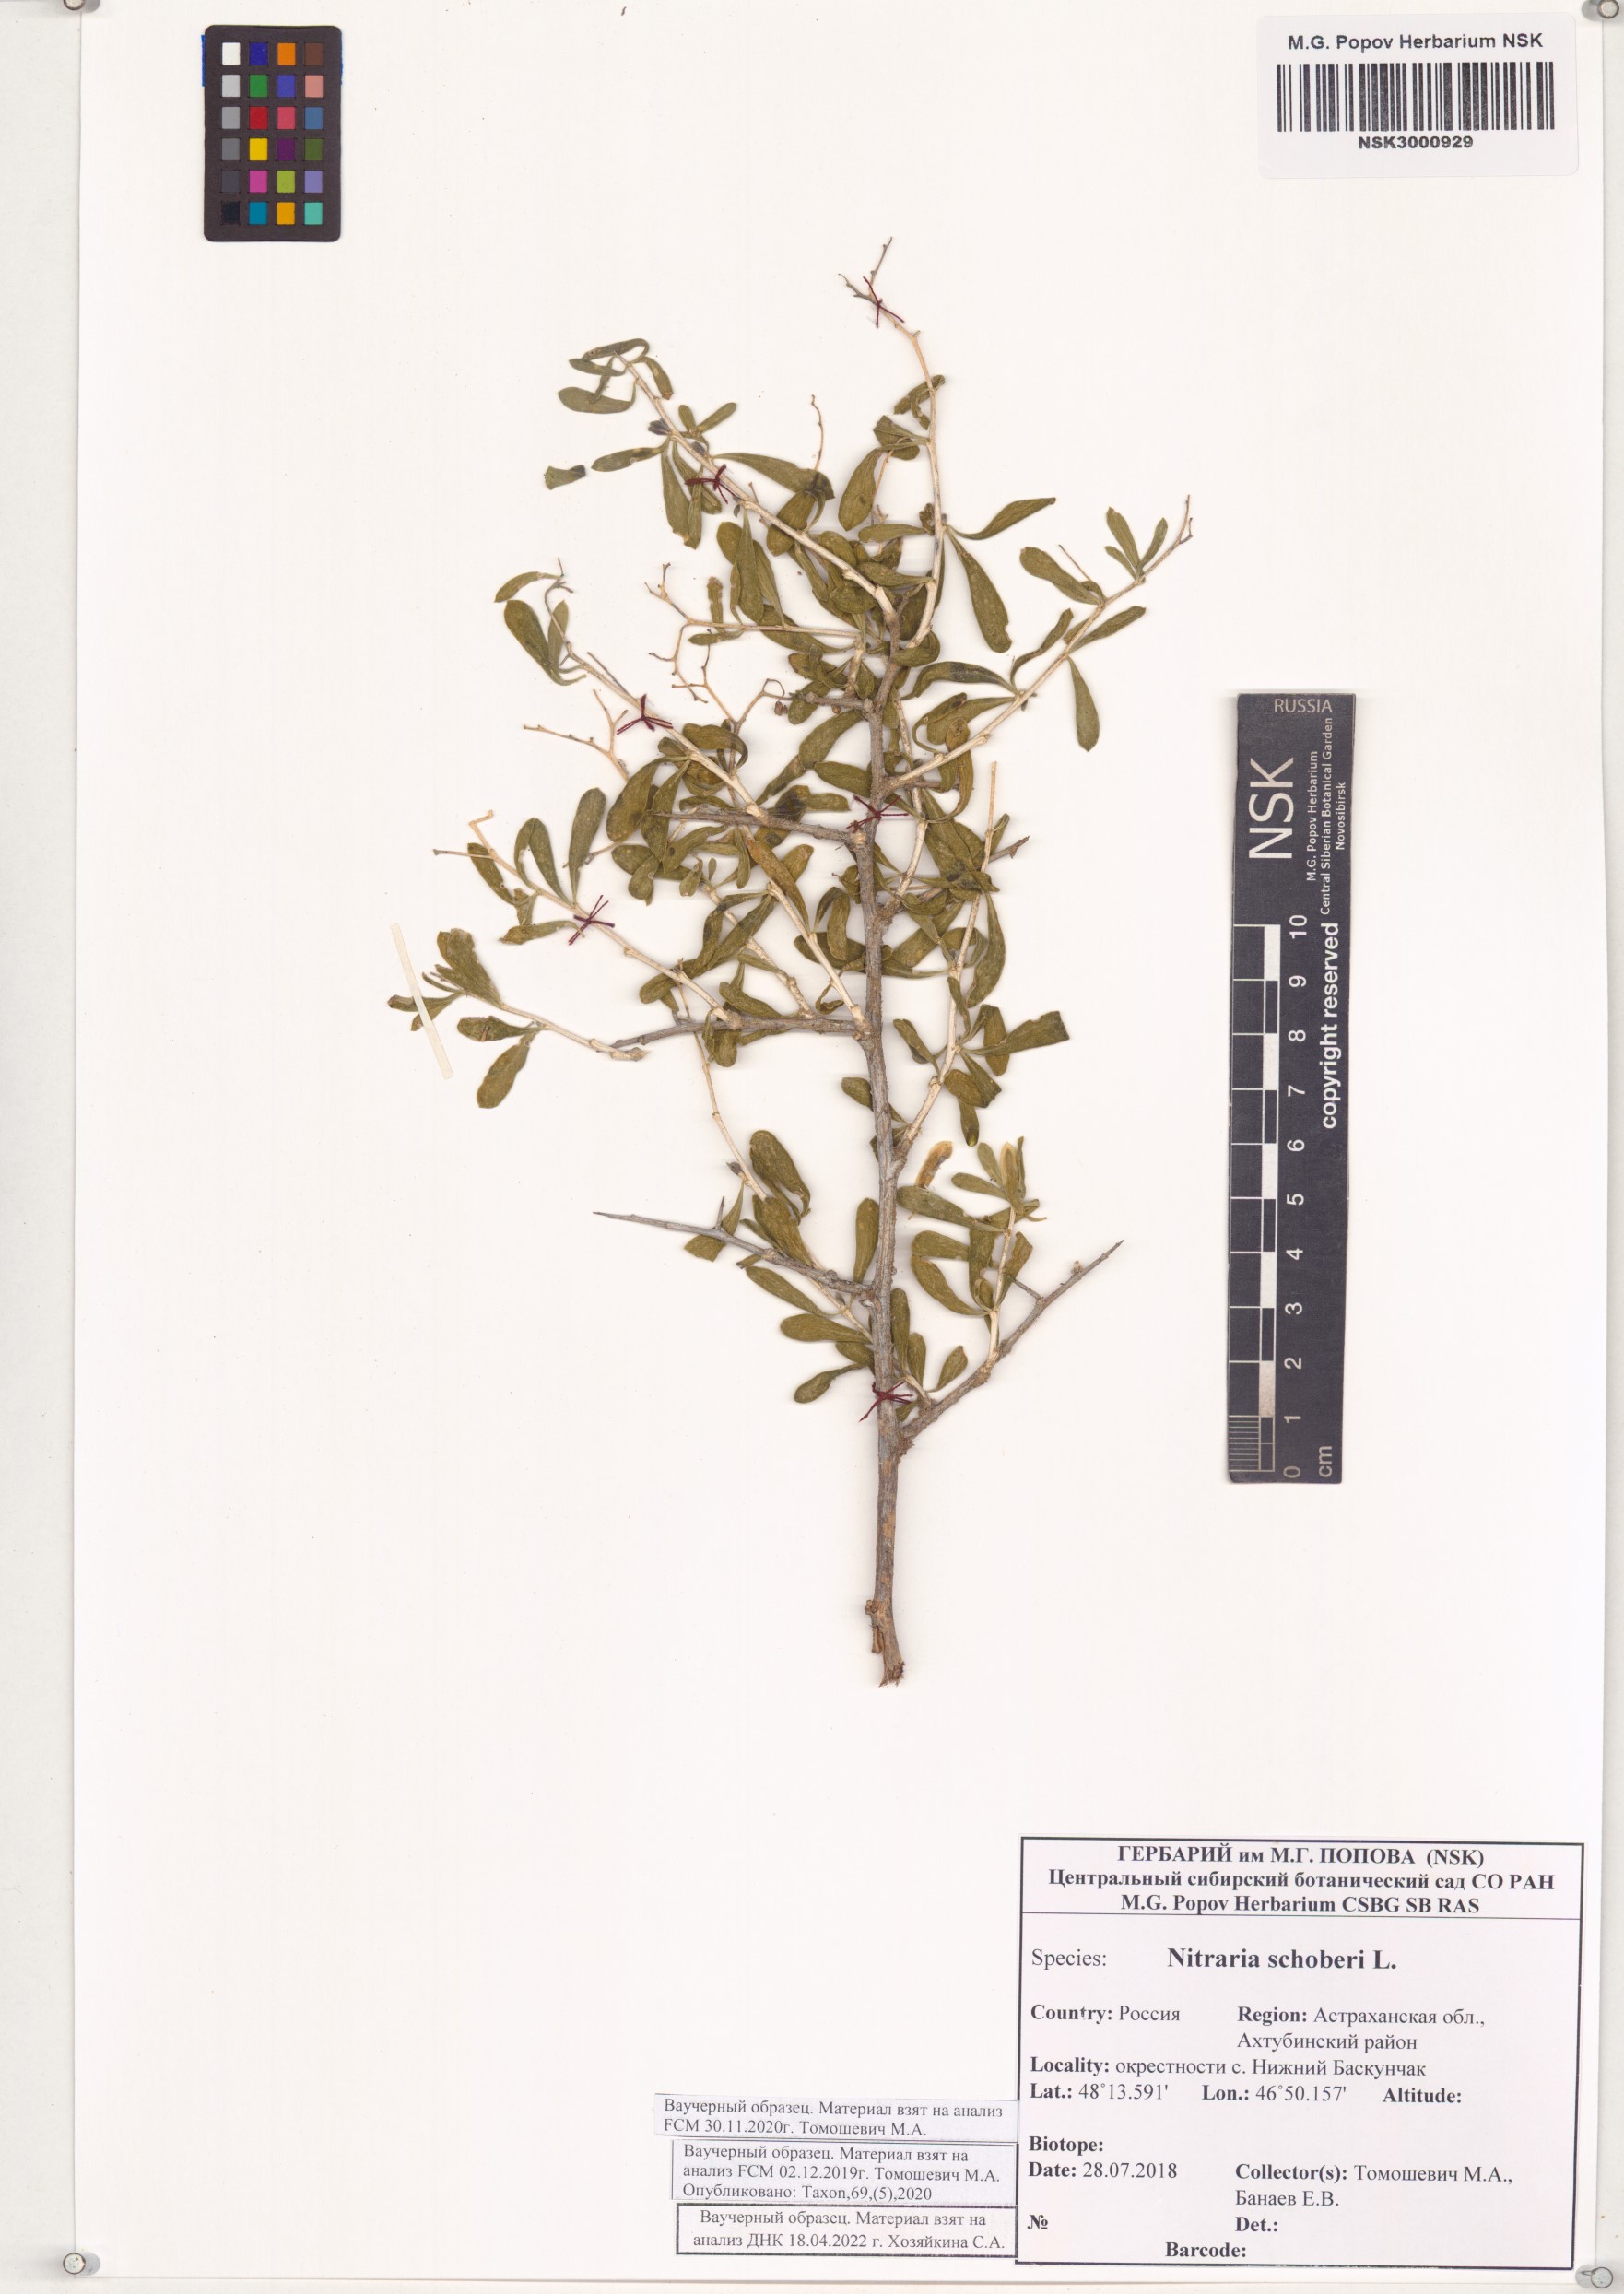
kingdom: Plantae
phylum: Tracheophyta
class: Magnoliopsida
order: Sapindales
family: Nitrariaceae
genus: Nitraria
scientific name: Nitraria schoberi
